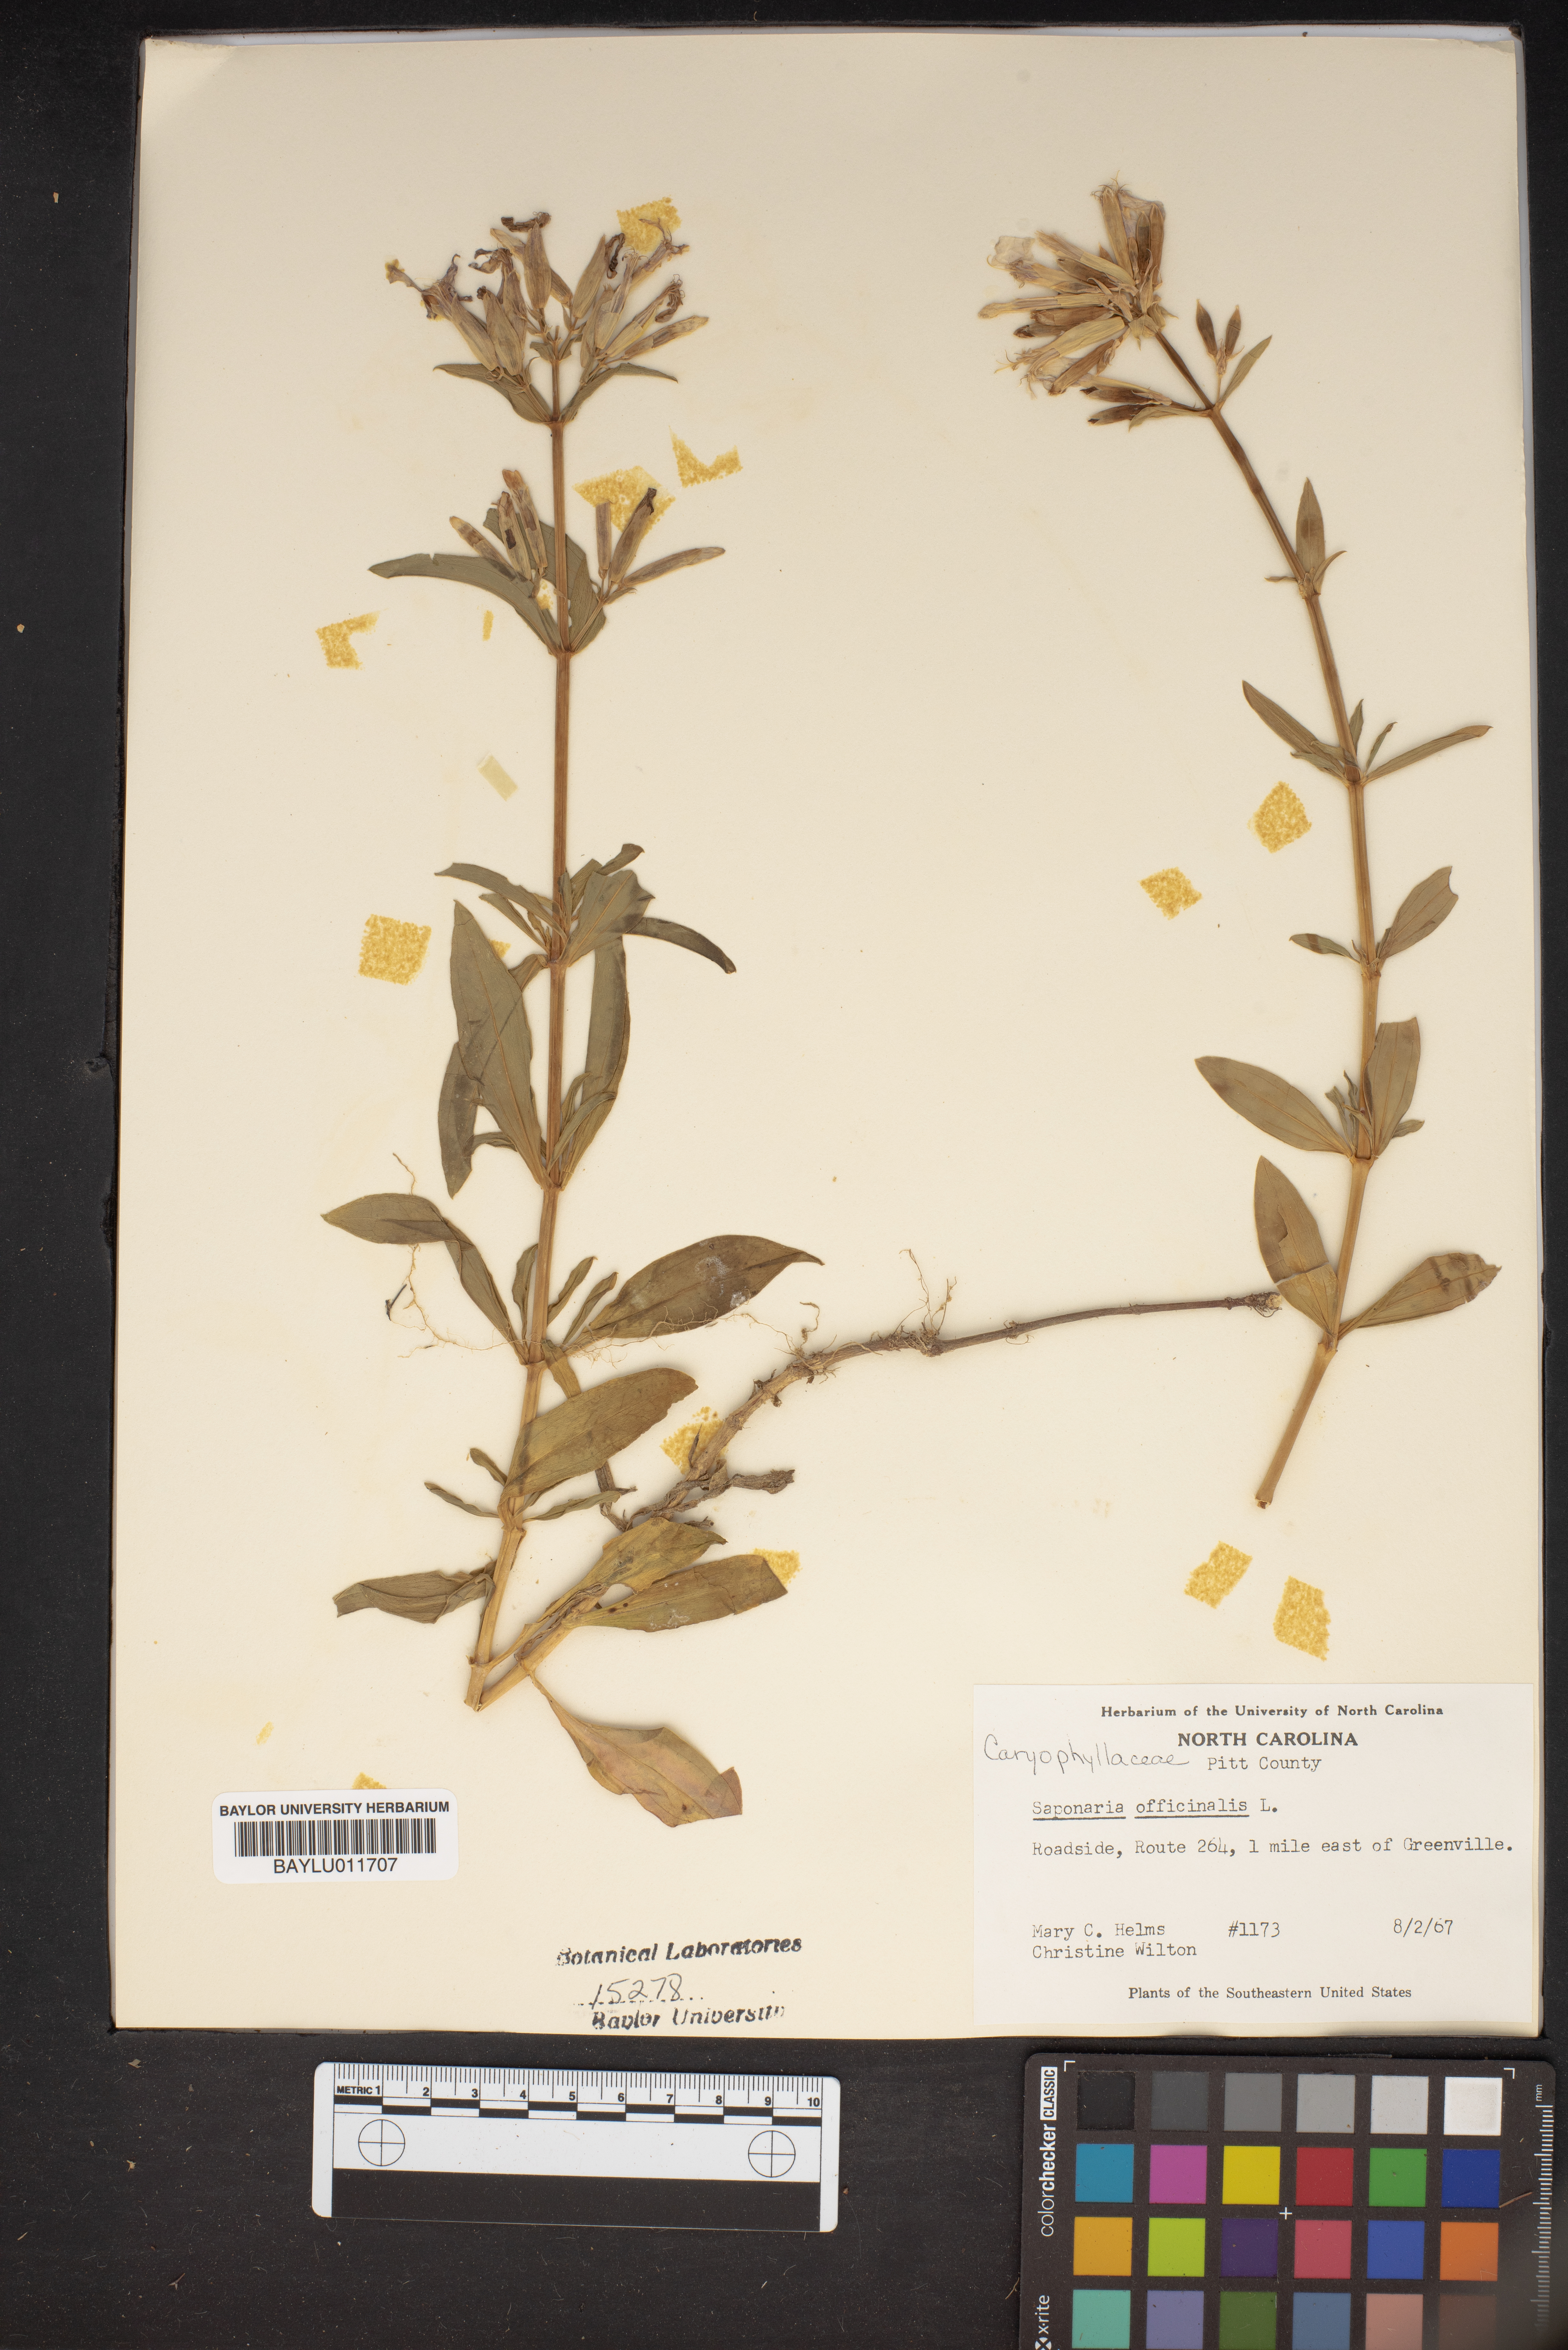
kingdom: Plantae
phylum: Tracheophyta
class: Magnoliopsida
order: Caryophyllales
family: Caryophyllaceae
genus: Saponaria
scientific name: Saponaria officinalis
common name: Soapwort
